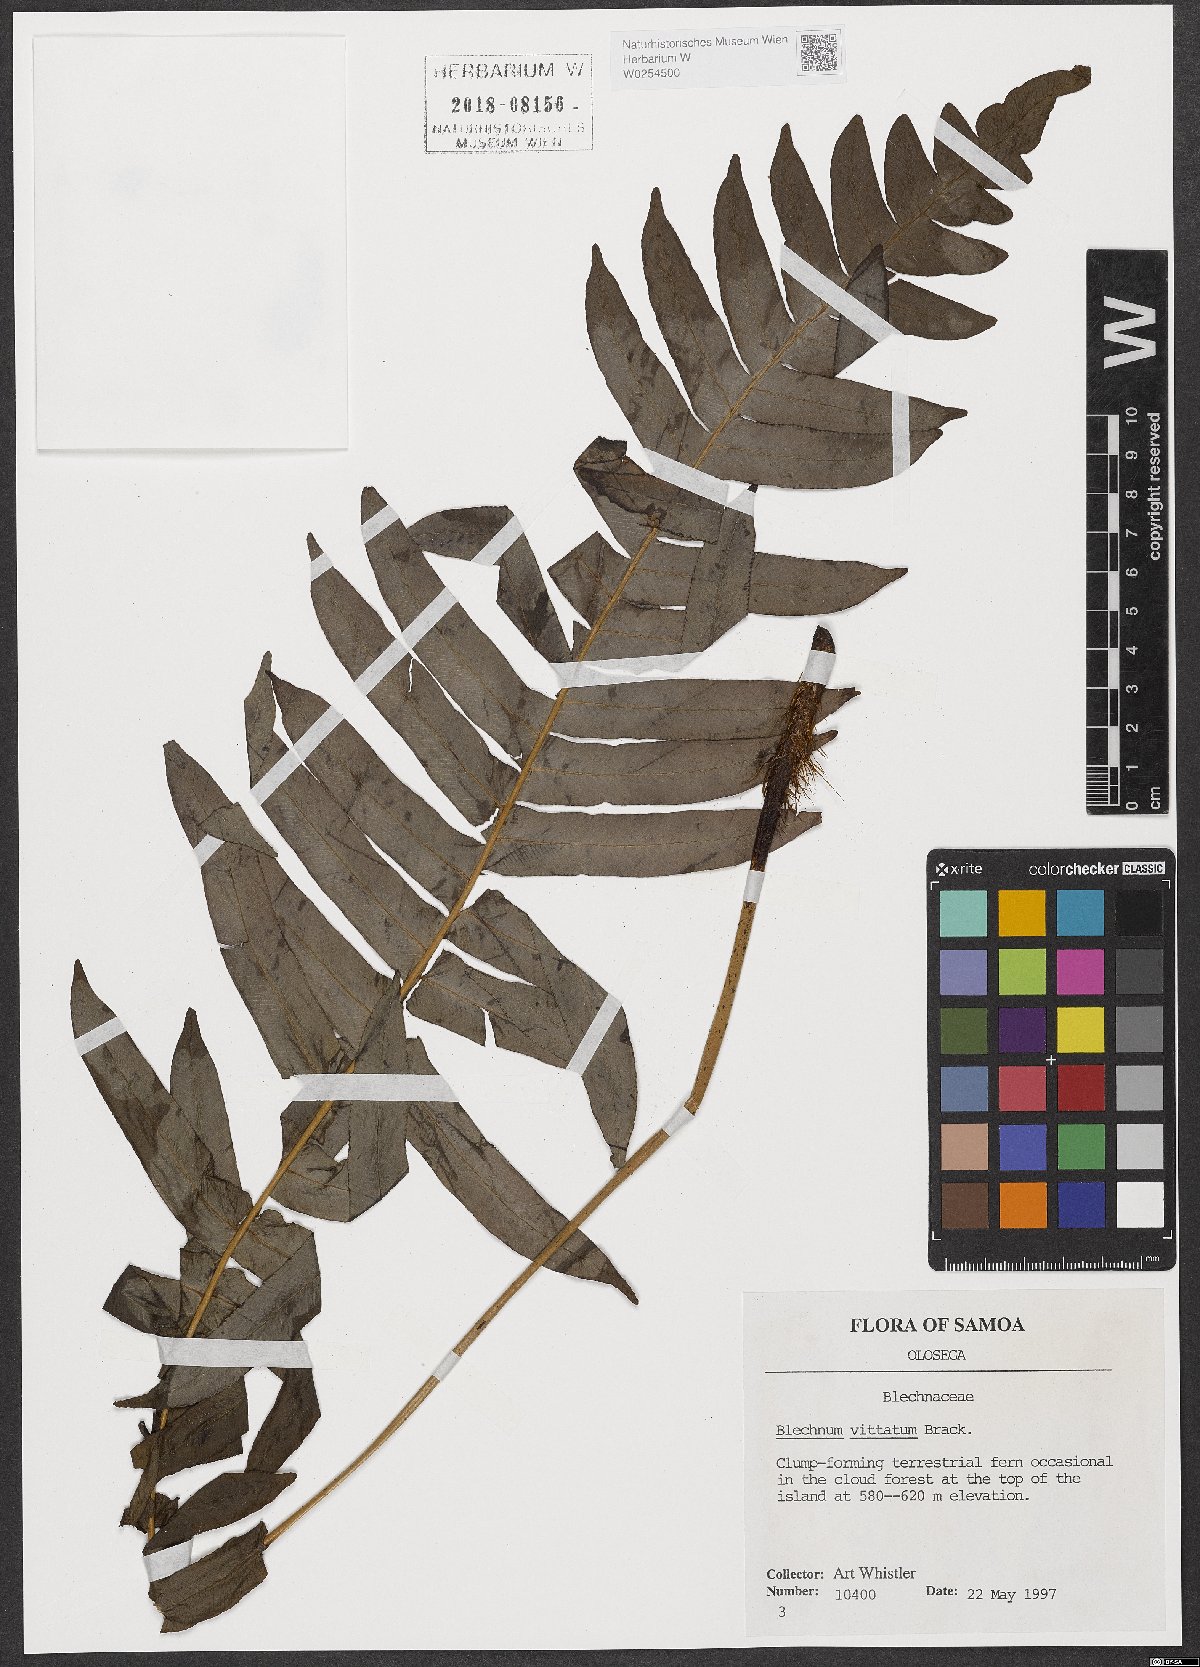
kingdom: Plantae
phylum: Tracheophyta
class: Polypodiopsida
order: Polypodiales
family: Blechnaceae
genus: Oceaniopteris
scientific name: Oceaniopteris vittata
